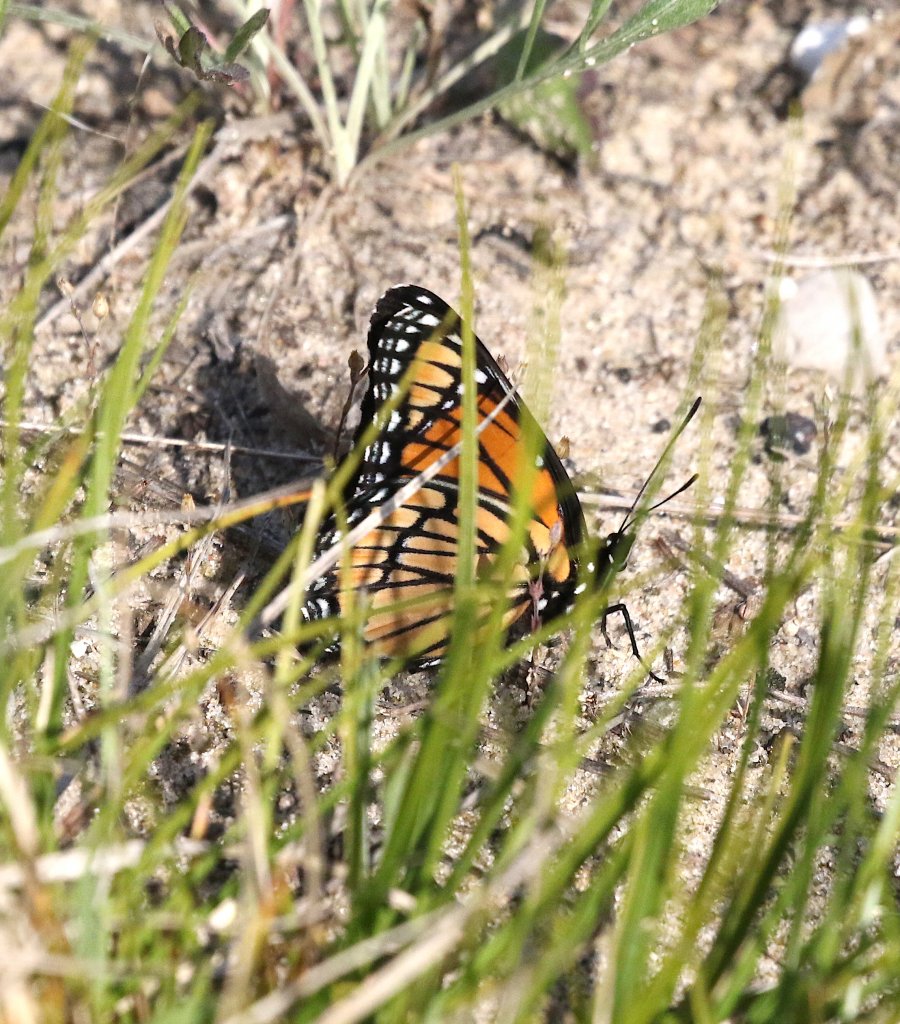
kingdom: Animalia
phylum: Arthropoda
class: Insecta
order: Lepidoptera
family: Nymphalidae
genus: Limenitis
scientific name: Limenitis archippus
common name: Viceroy
